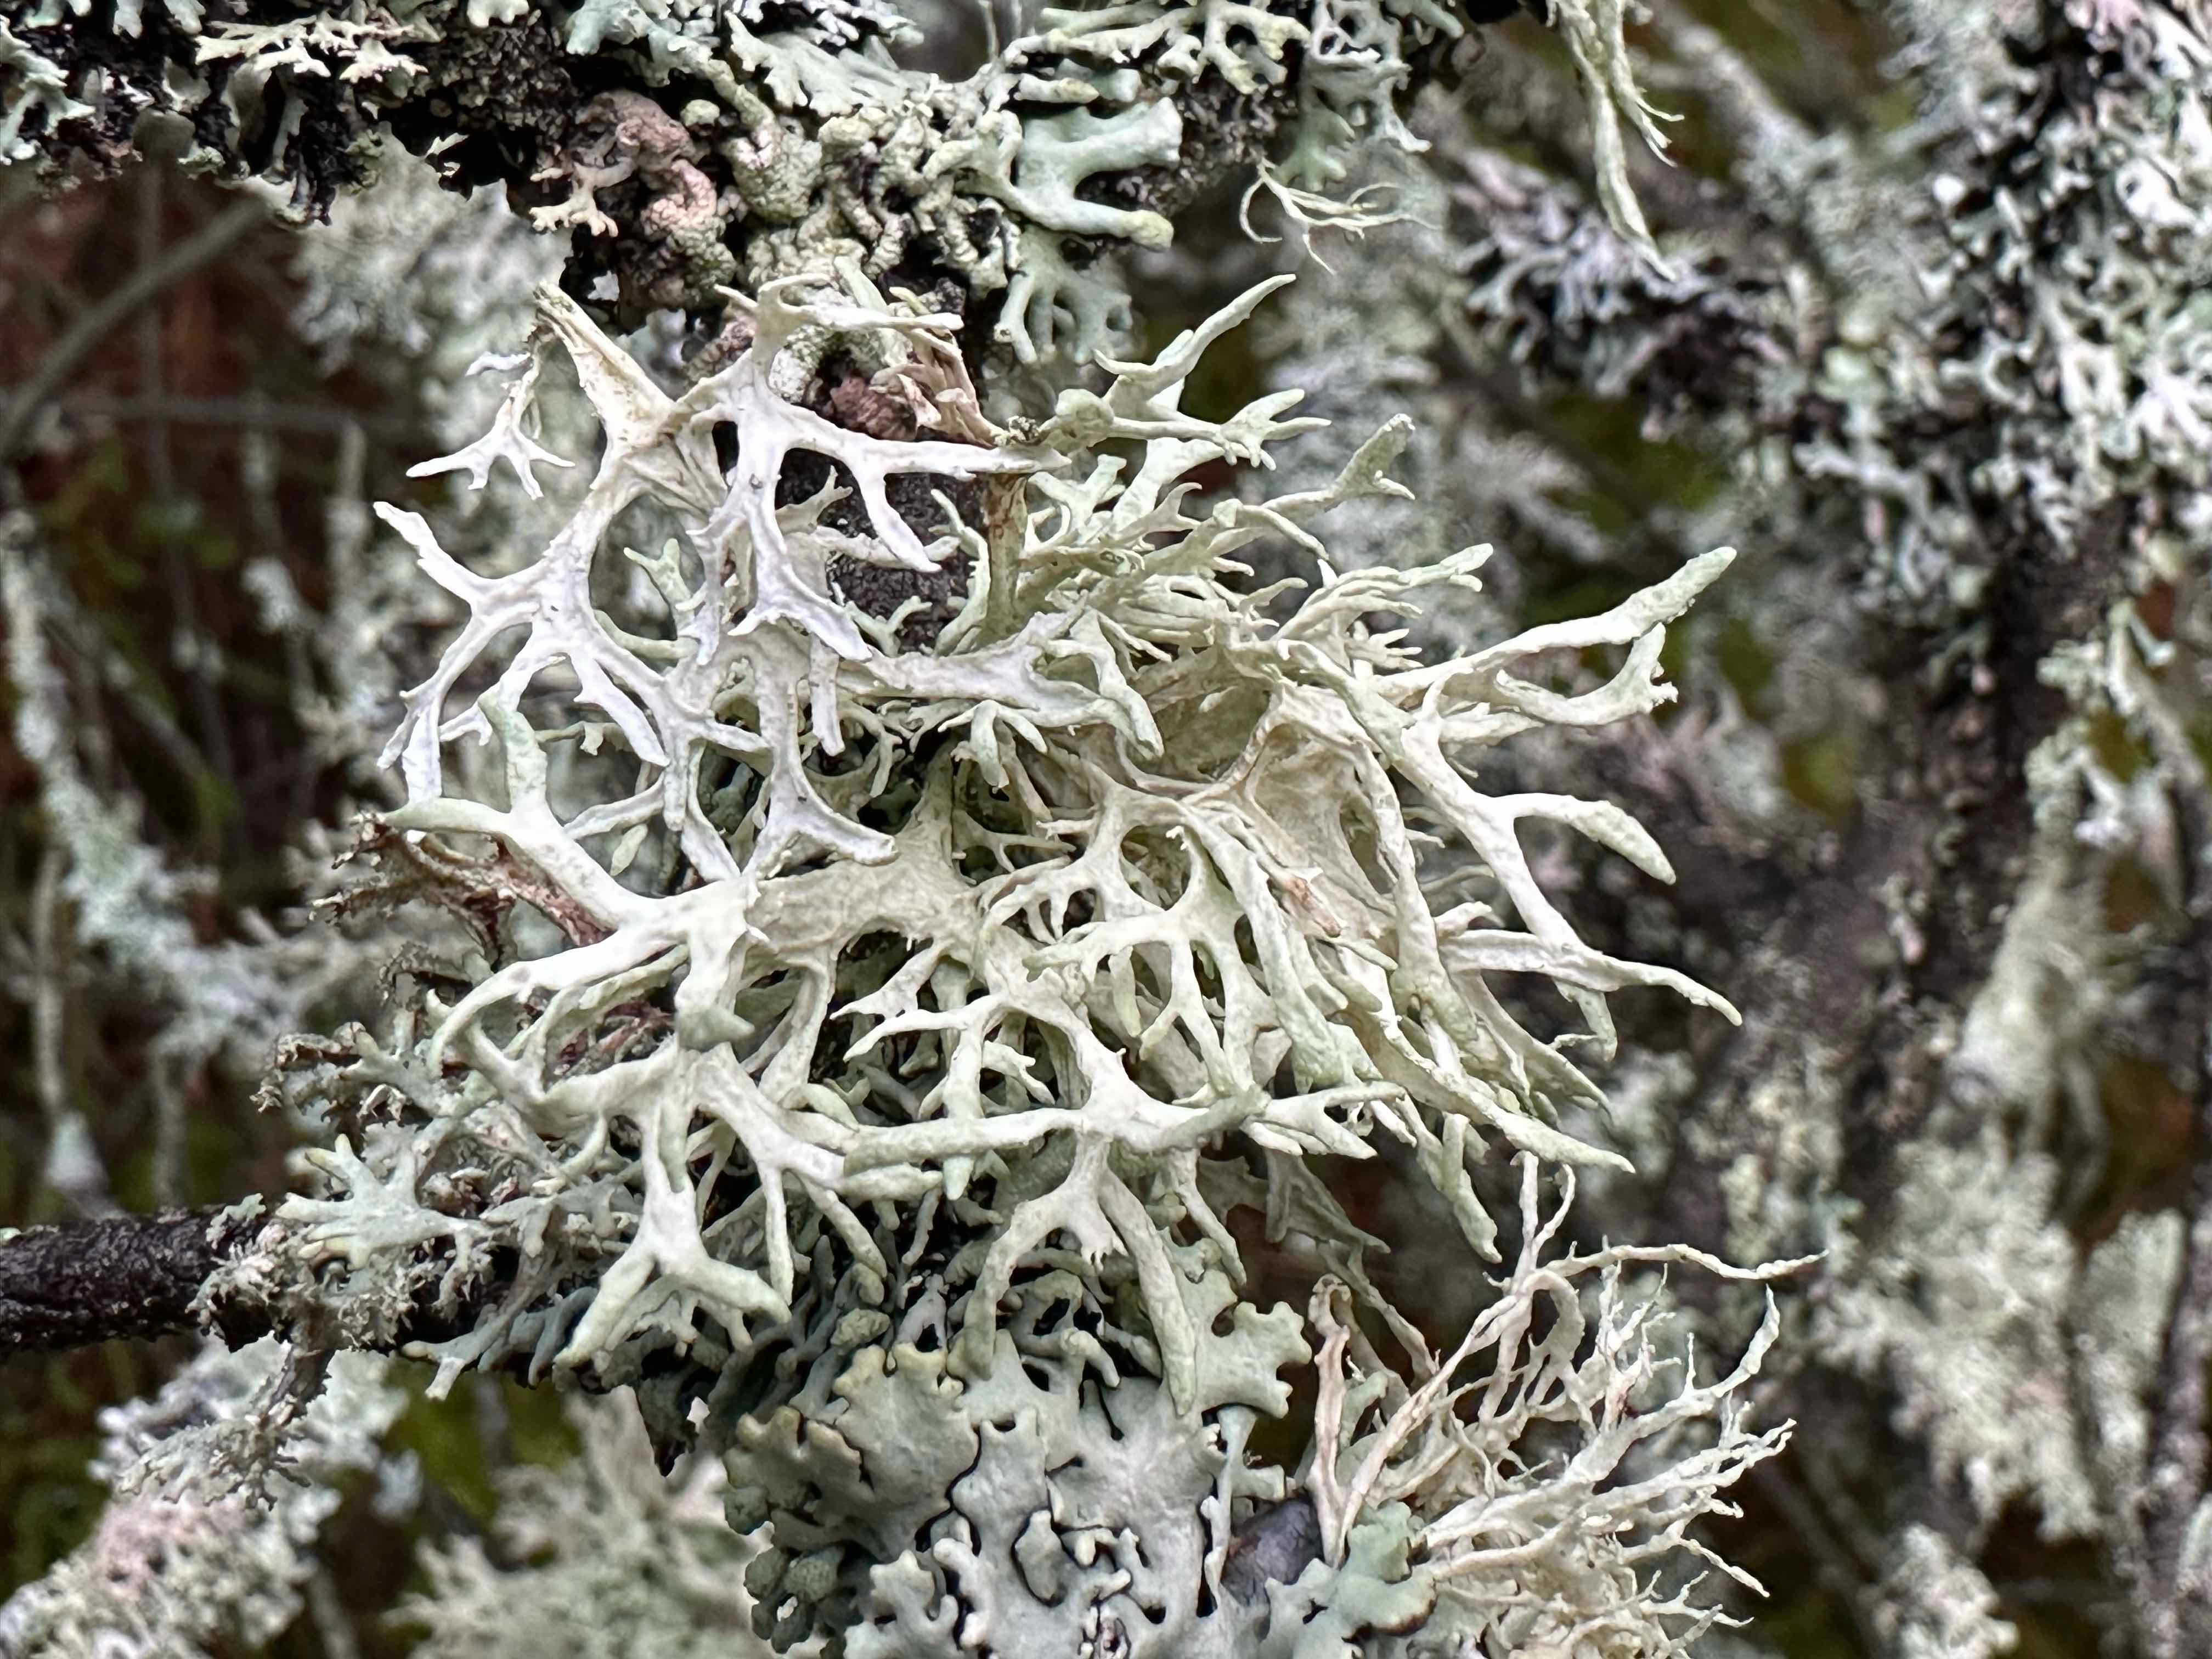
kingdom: Fungi
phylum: Ascomycota
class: Lecanoromycetes
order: Lecanorales
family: Parmeliaceae
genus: Evernia
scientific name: Evernia prunastri
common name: almindelig slåenlav
